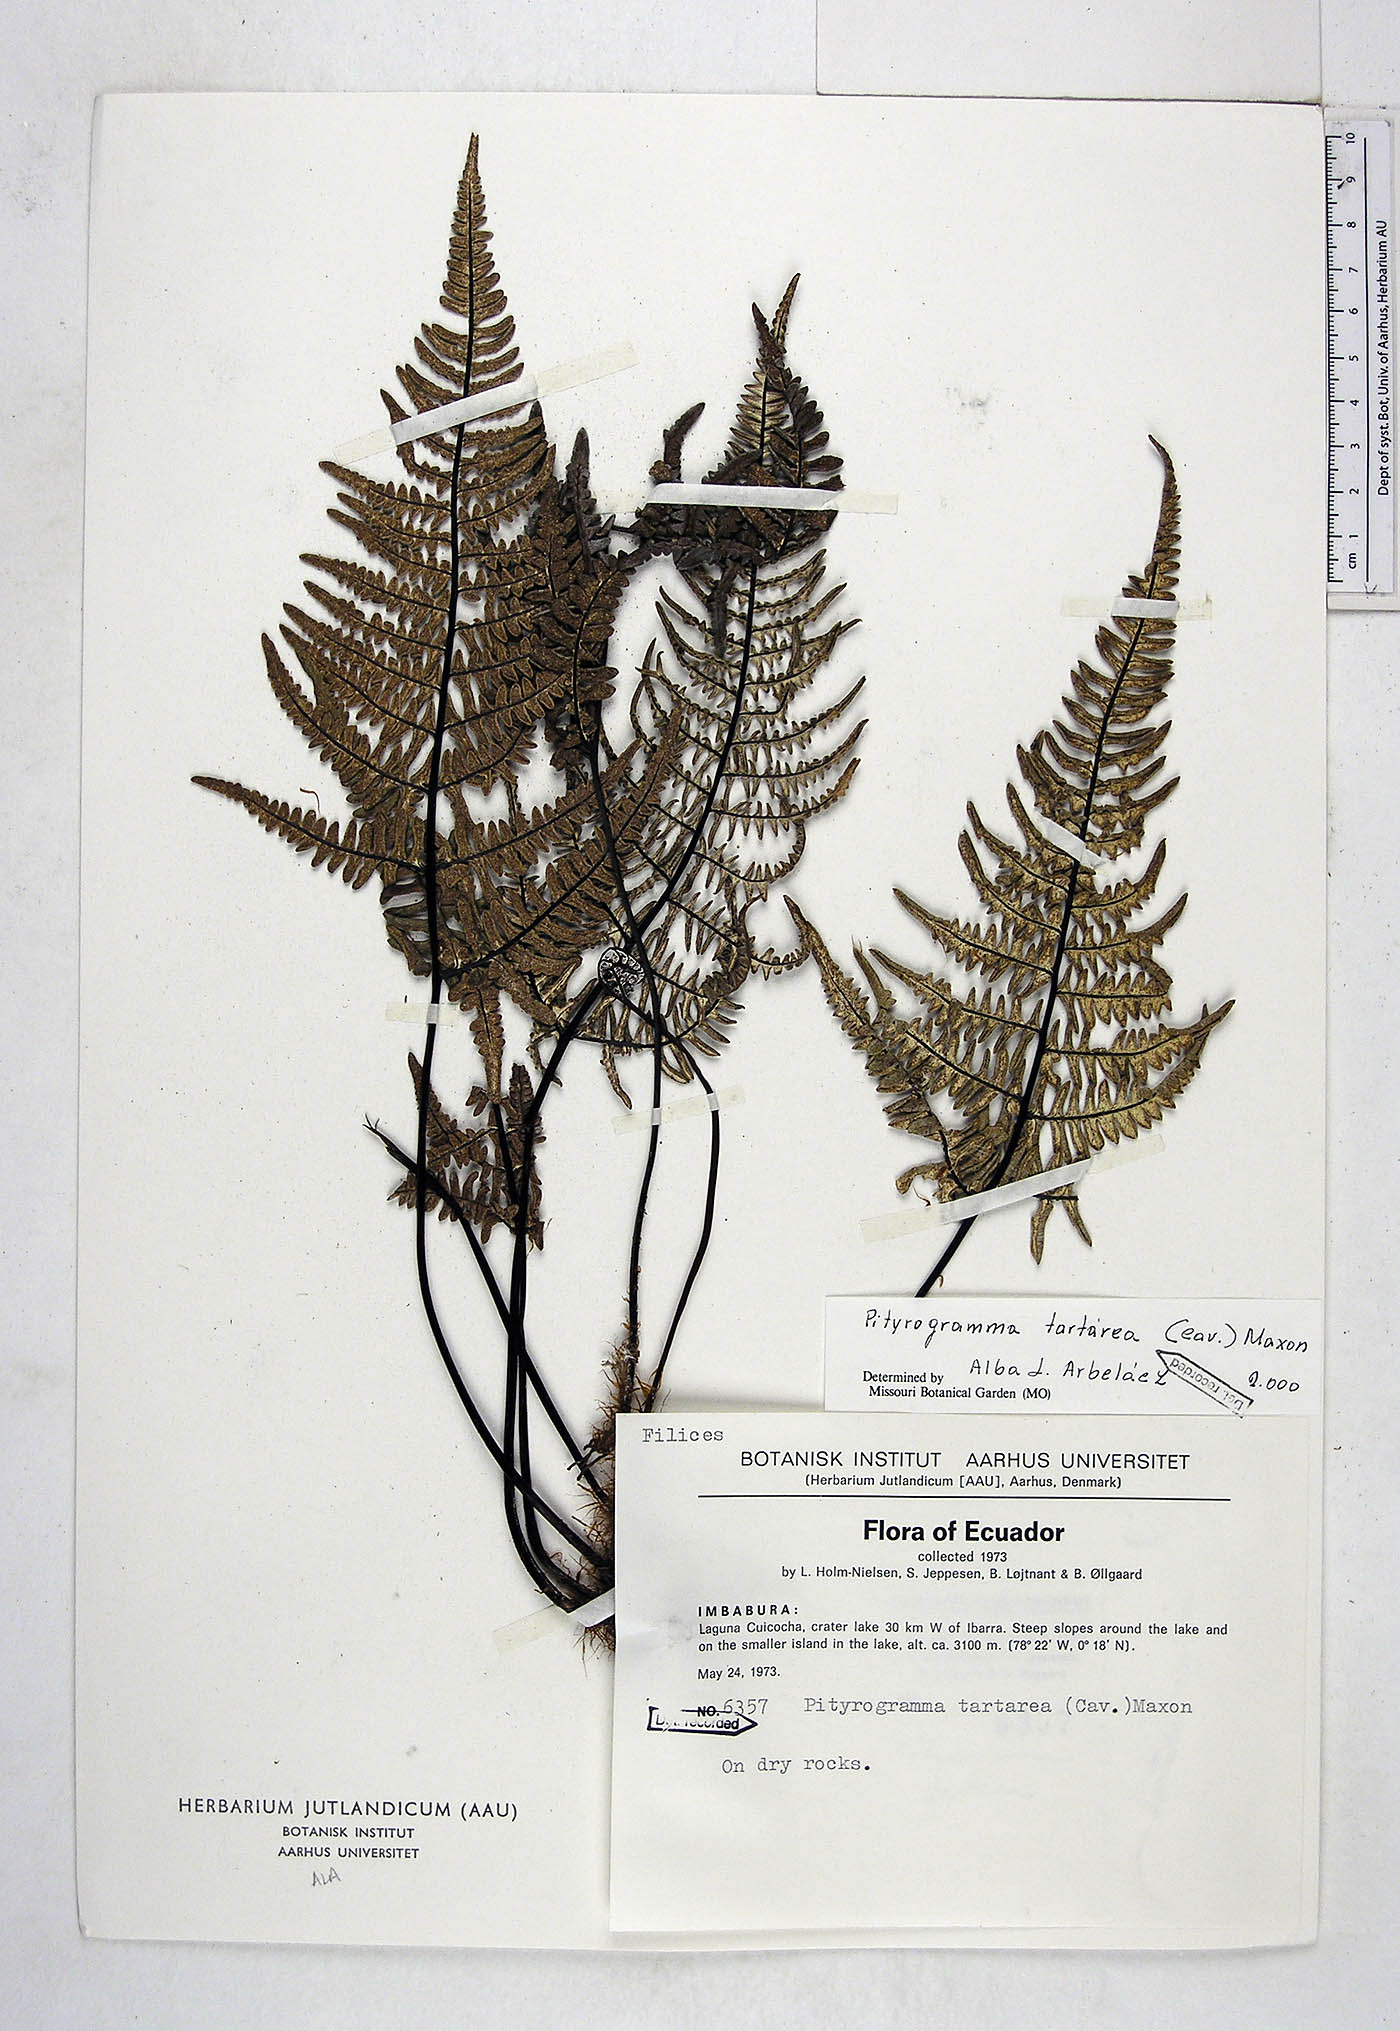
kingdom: Plantae
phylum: Tracheophyta
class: Polypodiopsida
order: Polypodiales
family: Pteridaceae
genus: Pityrogramma
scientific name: Pityrogramma ebenea
